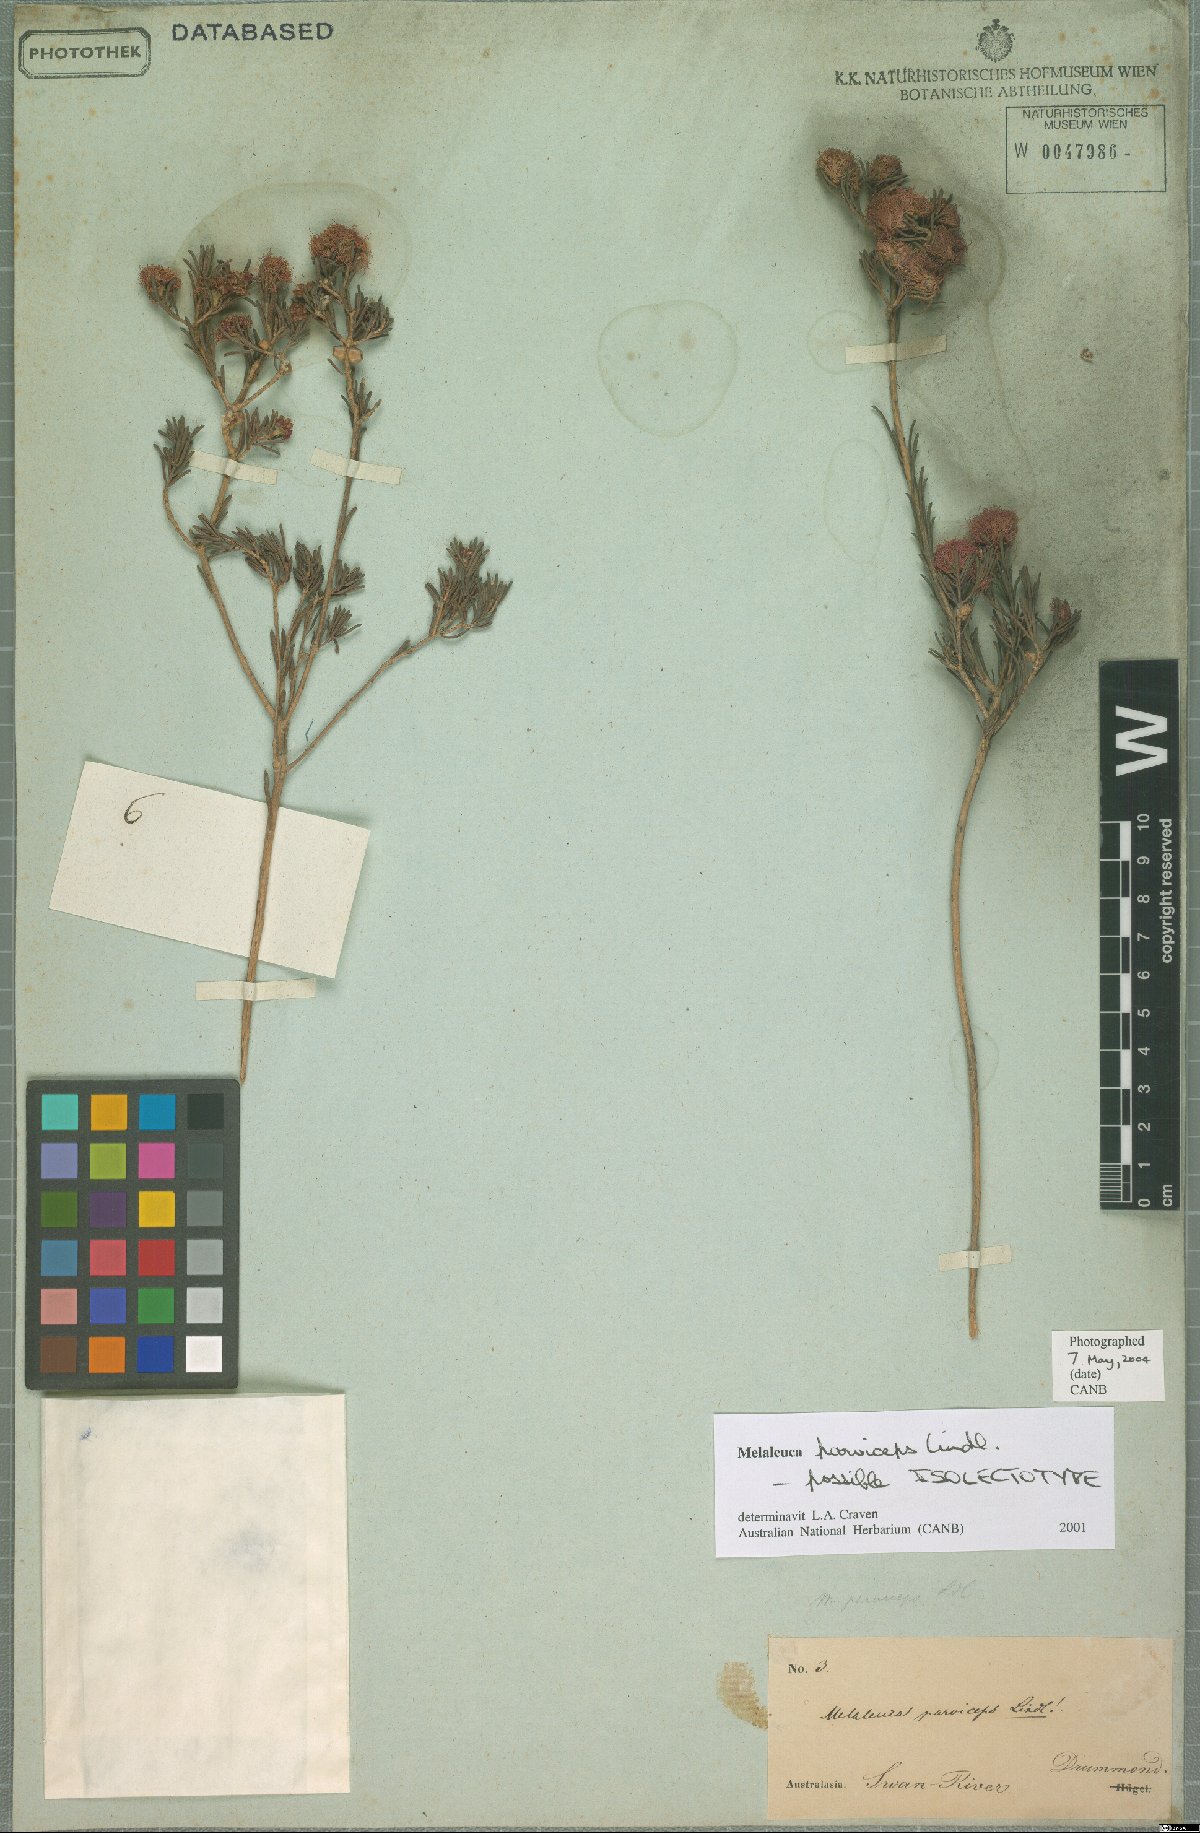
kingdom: Plantae
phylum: Tracheophyta
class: Magnoliopsida
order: Myrtales
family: Myrtaceae
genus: Melaleuca
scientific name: Melaleuca parviceps
